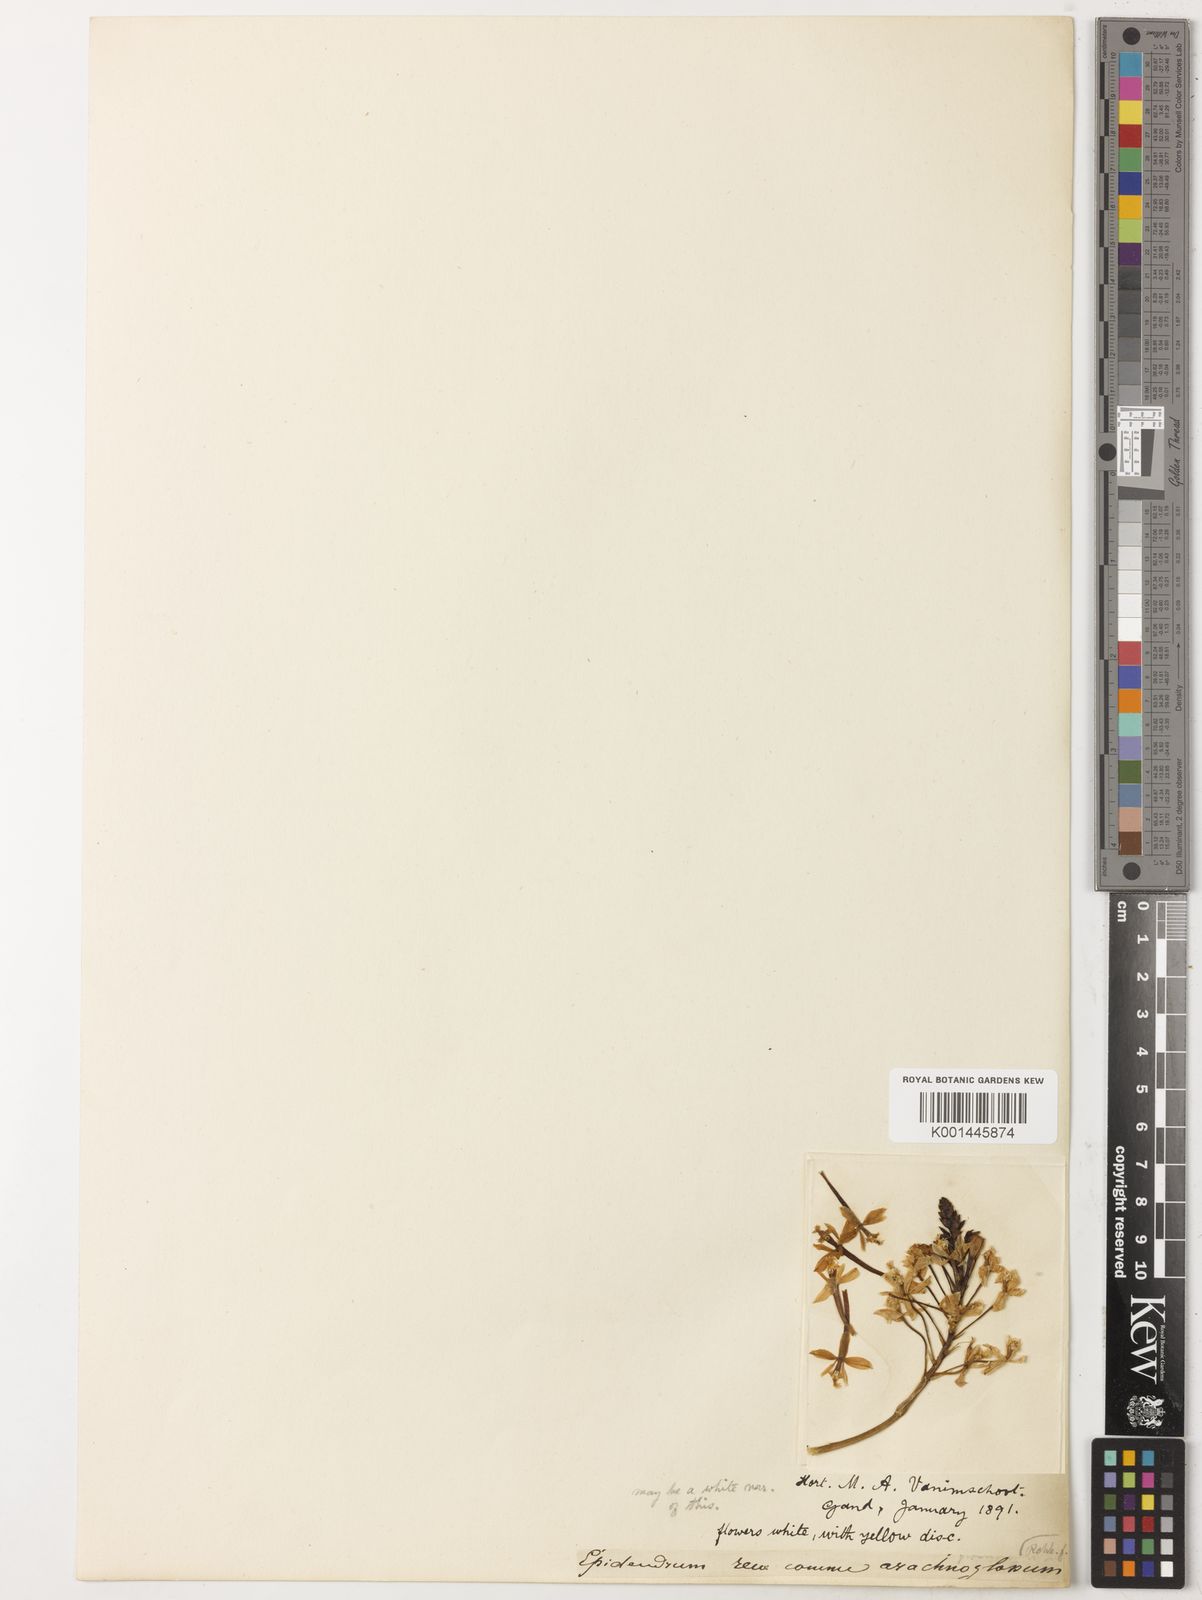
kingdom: Plantae
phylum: Tracheophyta
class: Liliopsida
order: Asparagales
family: Orchidaceae
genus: Epidendrum
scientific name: Epidendrum
